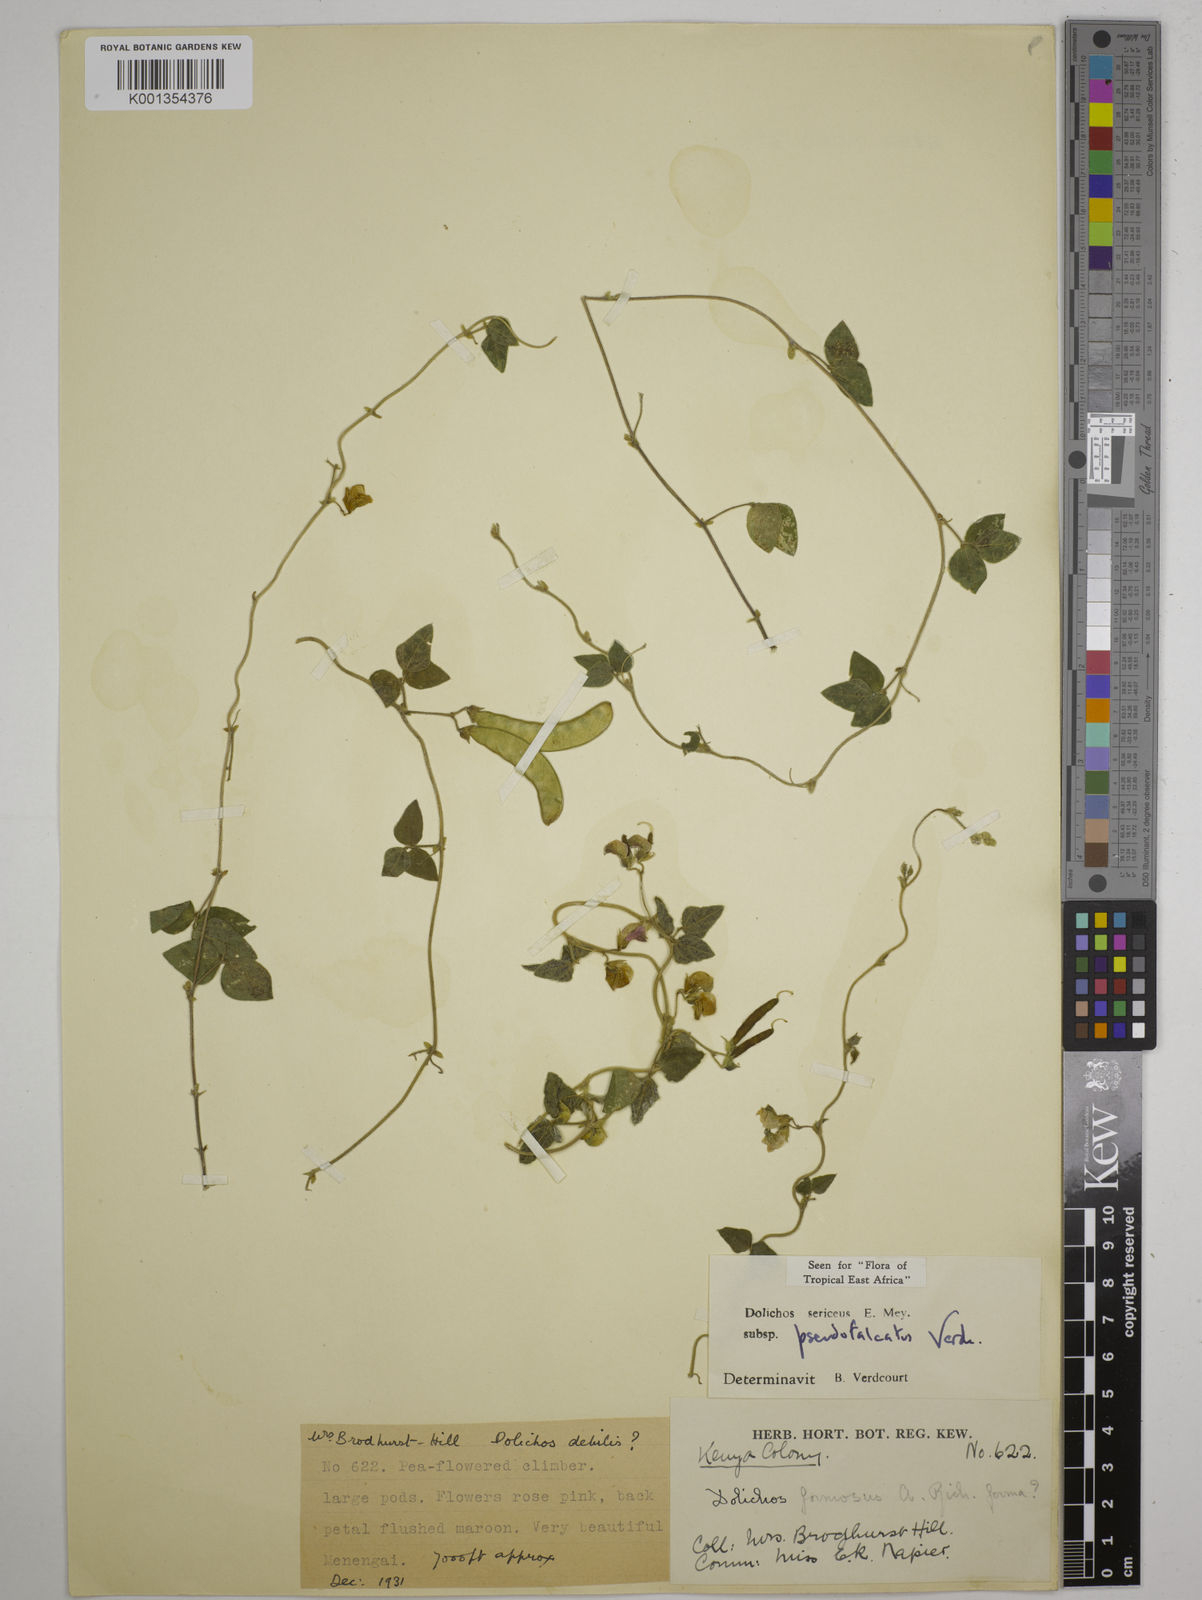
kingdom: Plantae
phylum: Tracheophyta
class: Magnoliopsida
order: Fabales
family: Fabaceae
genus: Dolichos
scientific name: Dolichos
